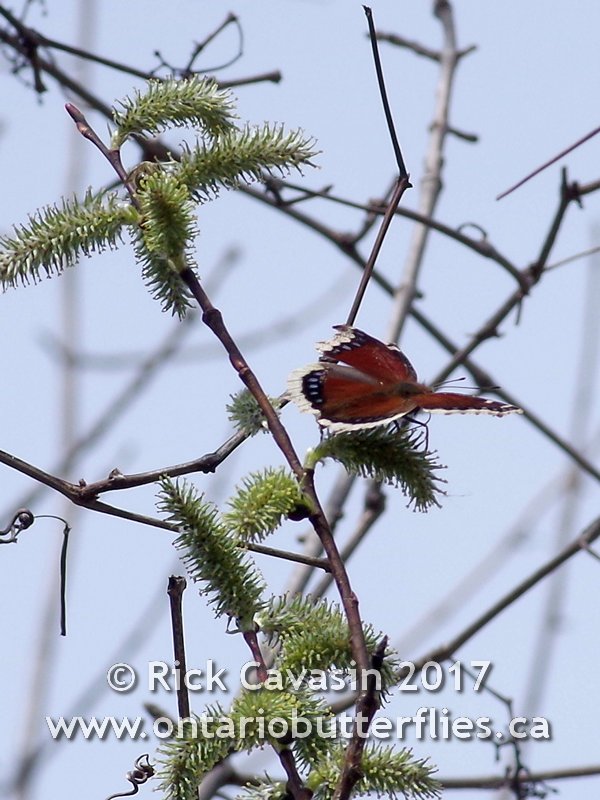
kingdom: Animalia
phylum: Arthropoda
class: Insecta
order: Lepidoptera
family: Nymphalidae
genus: Nymphalis
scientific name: Nymphalis antiopa
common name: Mourning Cloak
